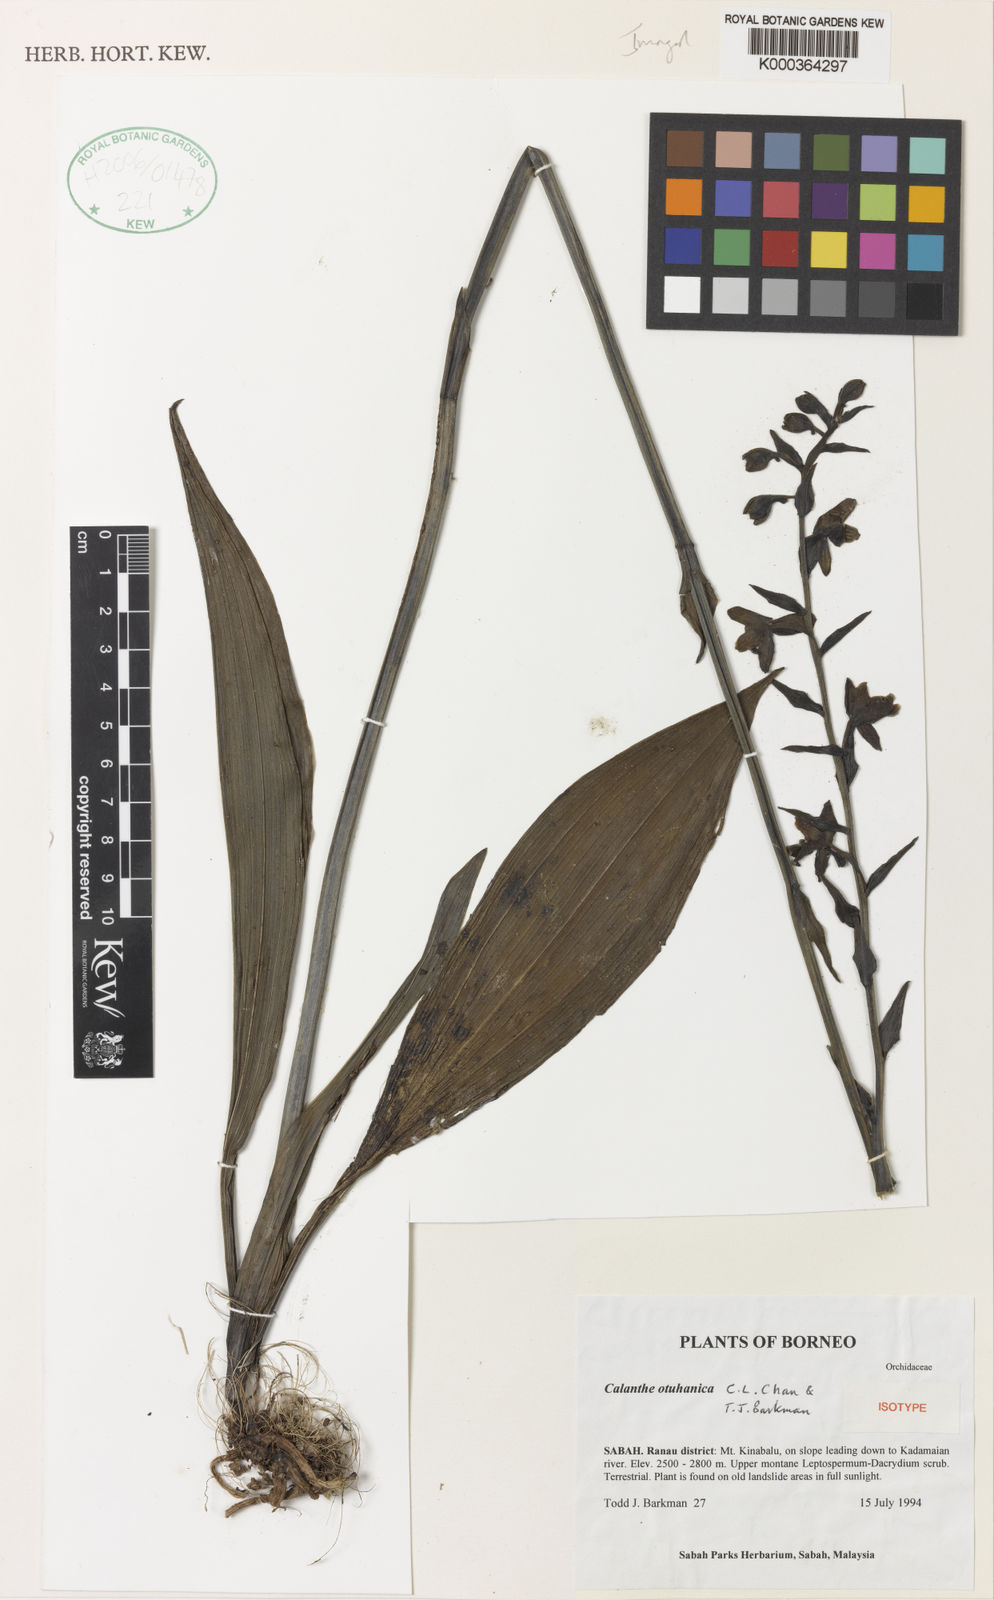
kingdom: Plantae
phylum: Tracheophyta
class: Liliopsida
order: Asparagales
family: Orchidaceae
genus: Calanthe
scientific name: Calanthe otuhanica
